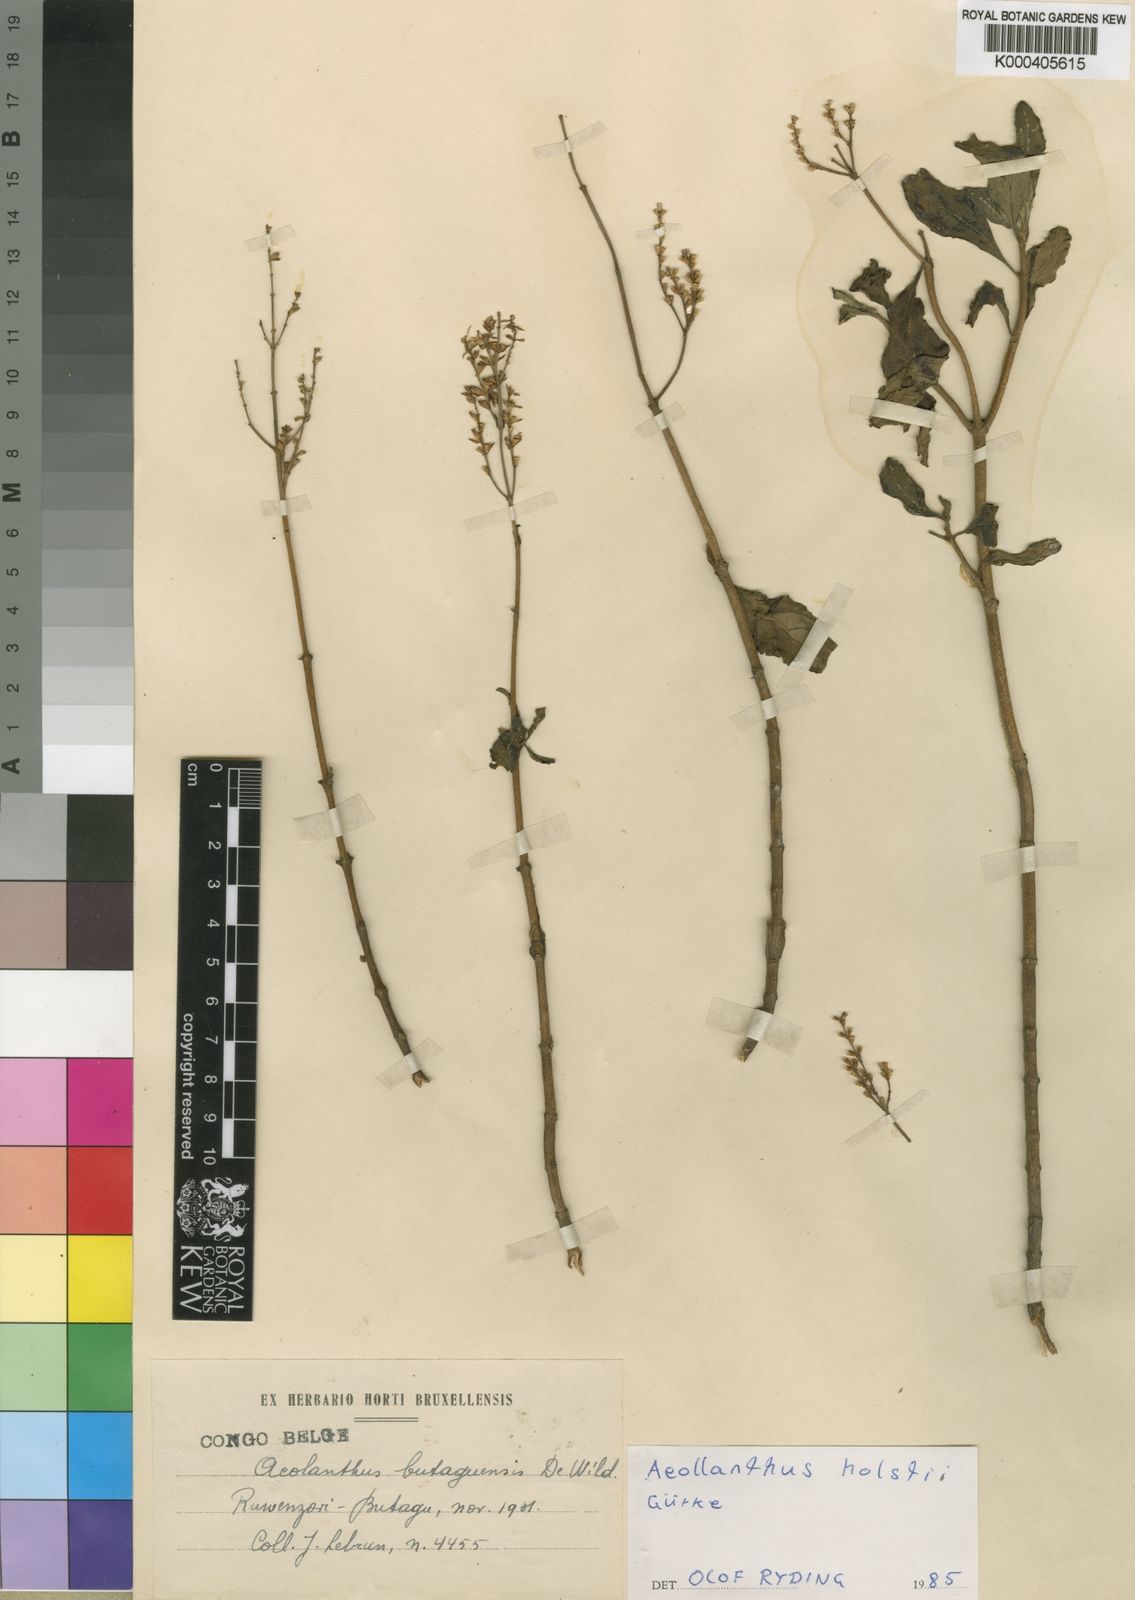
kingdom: Plantae
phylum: Tracheophyta
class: Magnoliopsida
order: Lamiales
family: Lamiaceae
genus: Aeollanthus
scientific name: Aeollanthus
